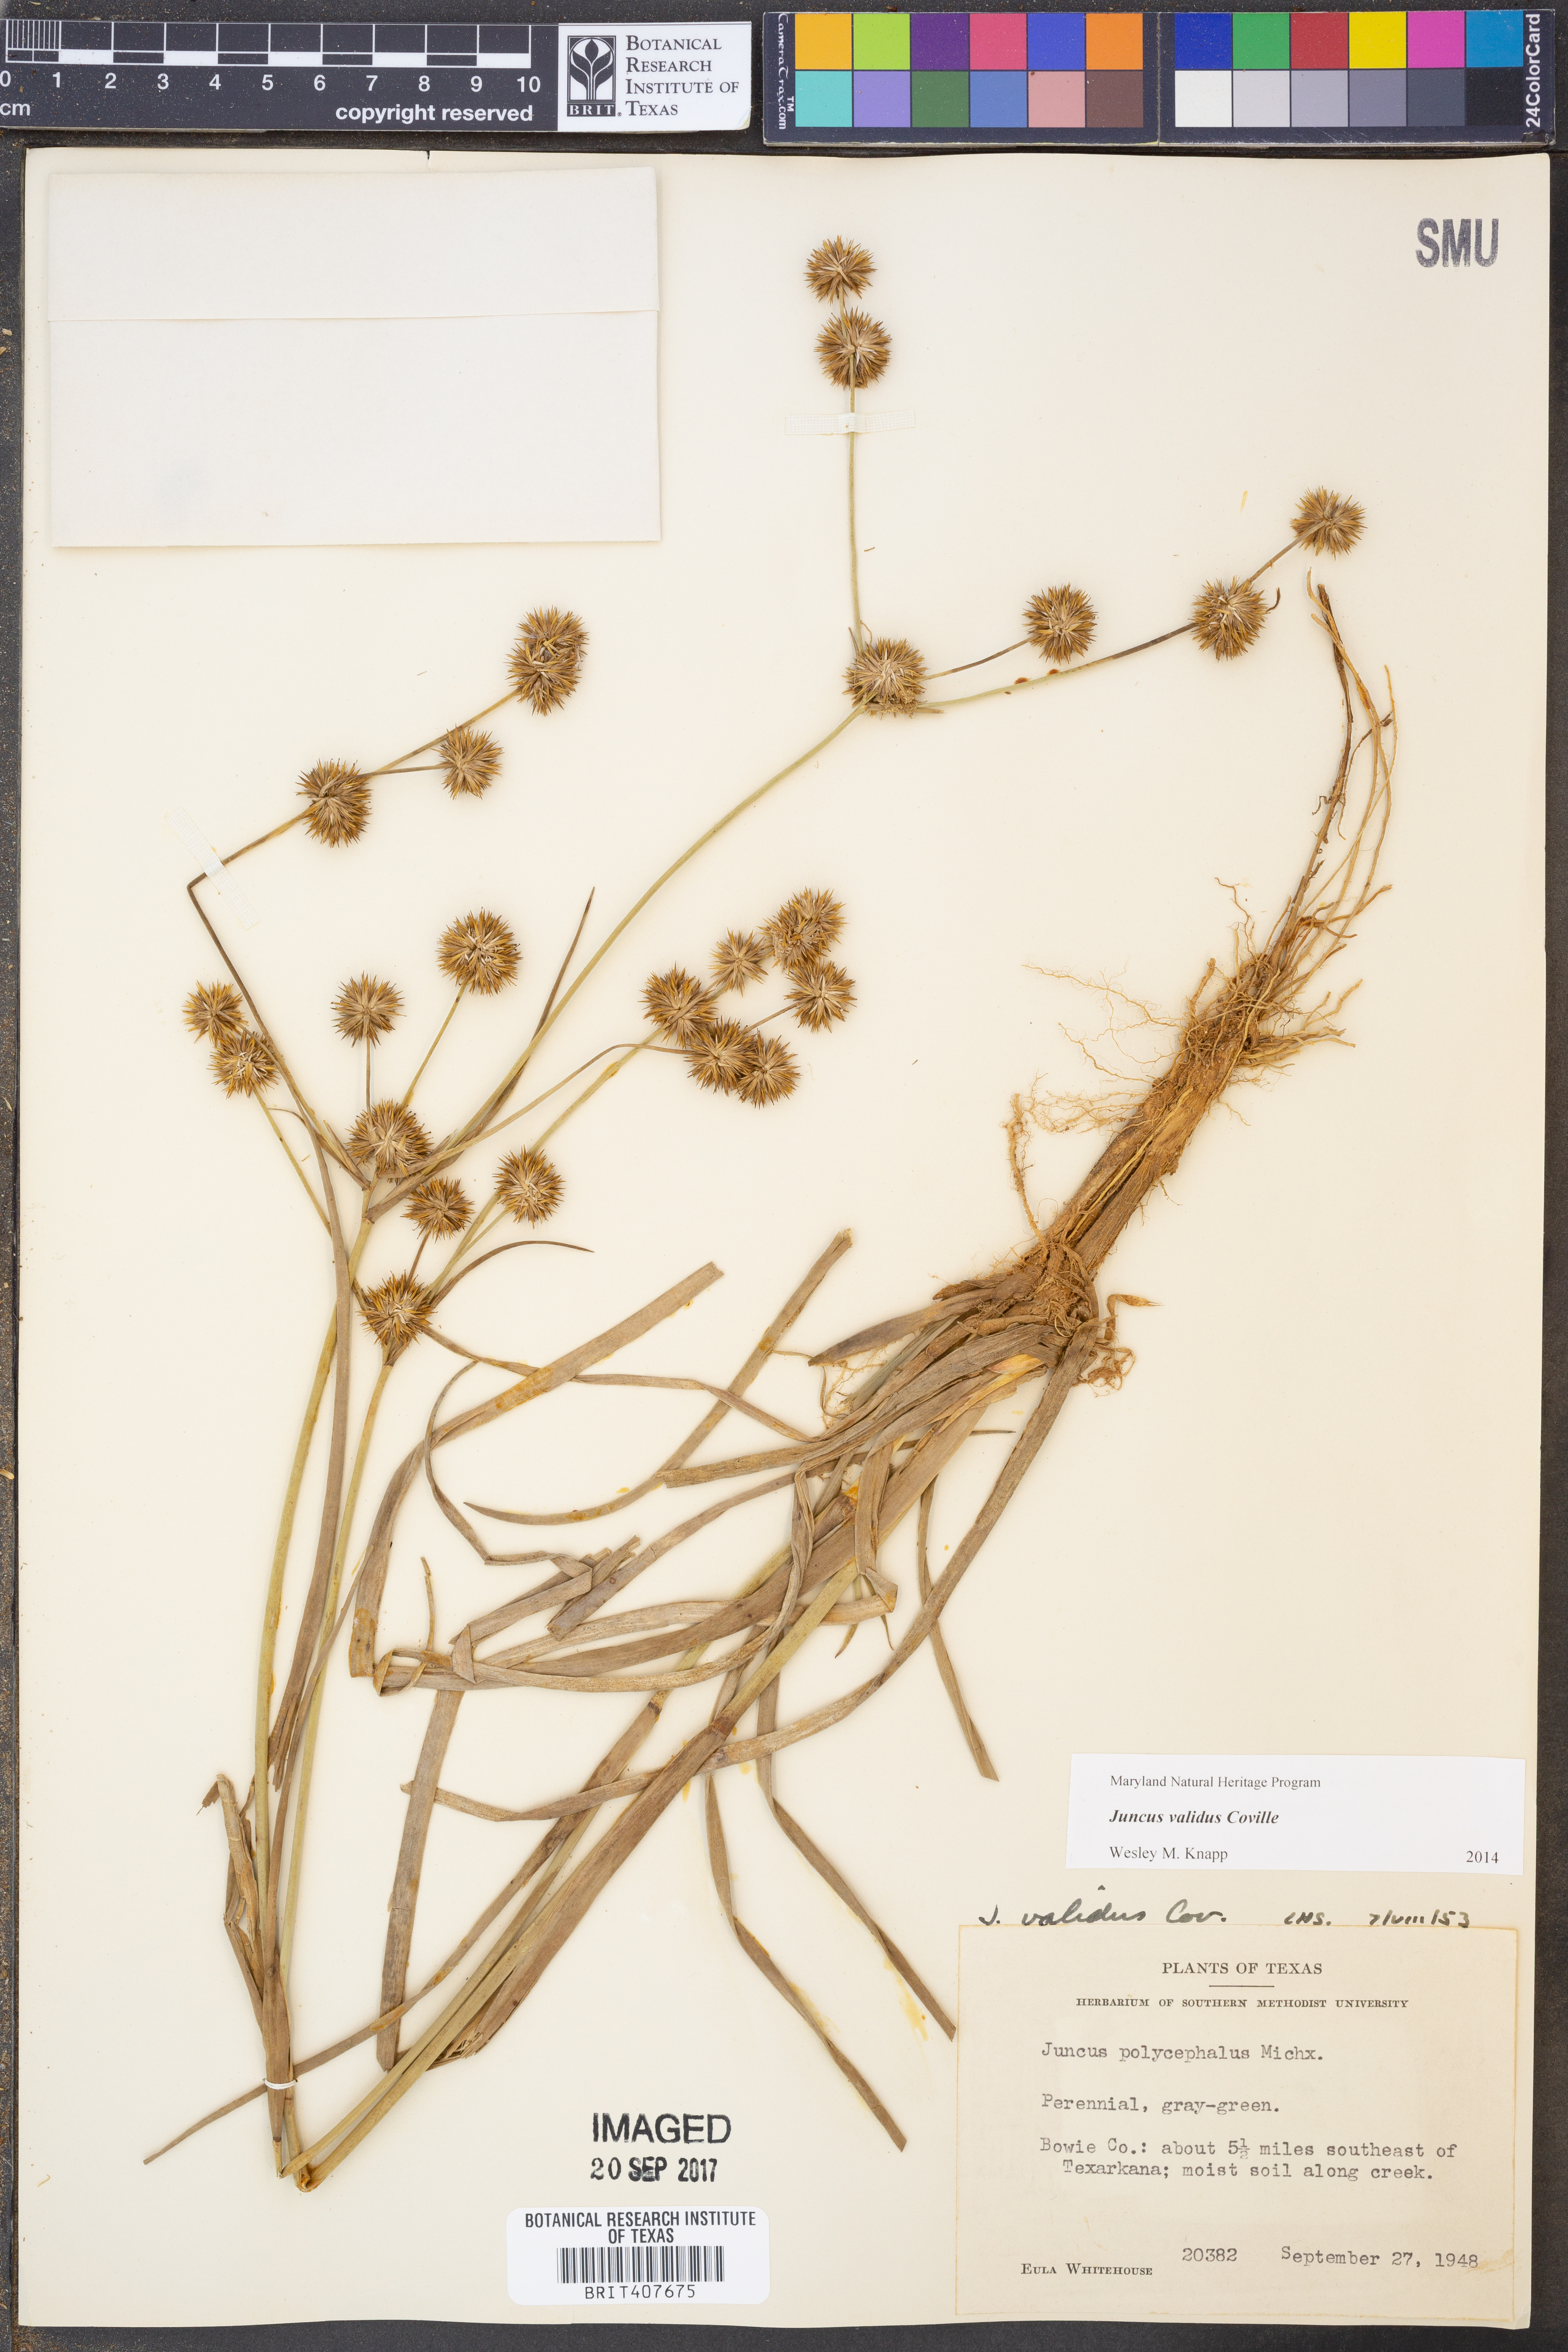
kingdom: Plantae
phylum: Tracheophyta
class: Liliopsida
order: Poales
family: Juncaceae
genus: Juncus
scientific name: Juncus validus
